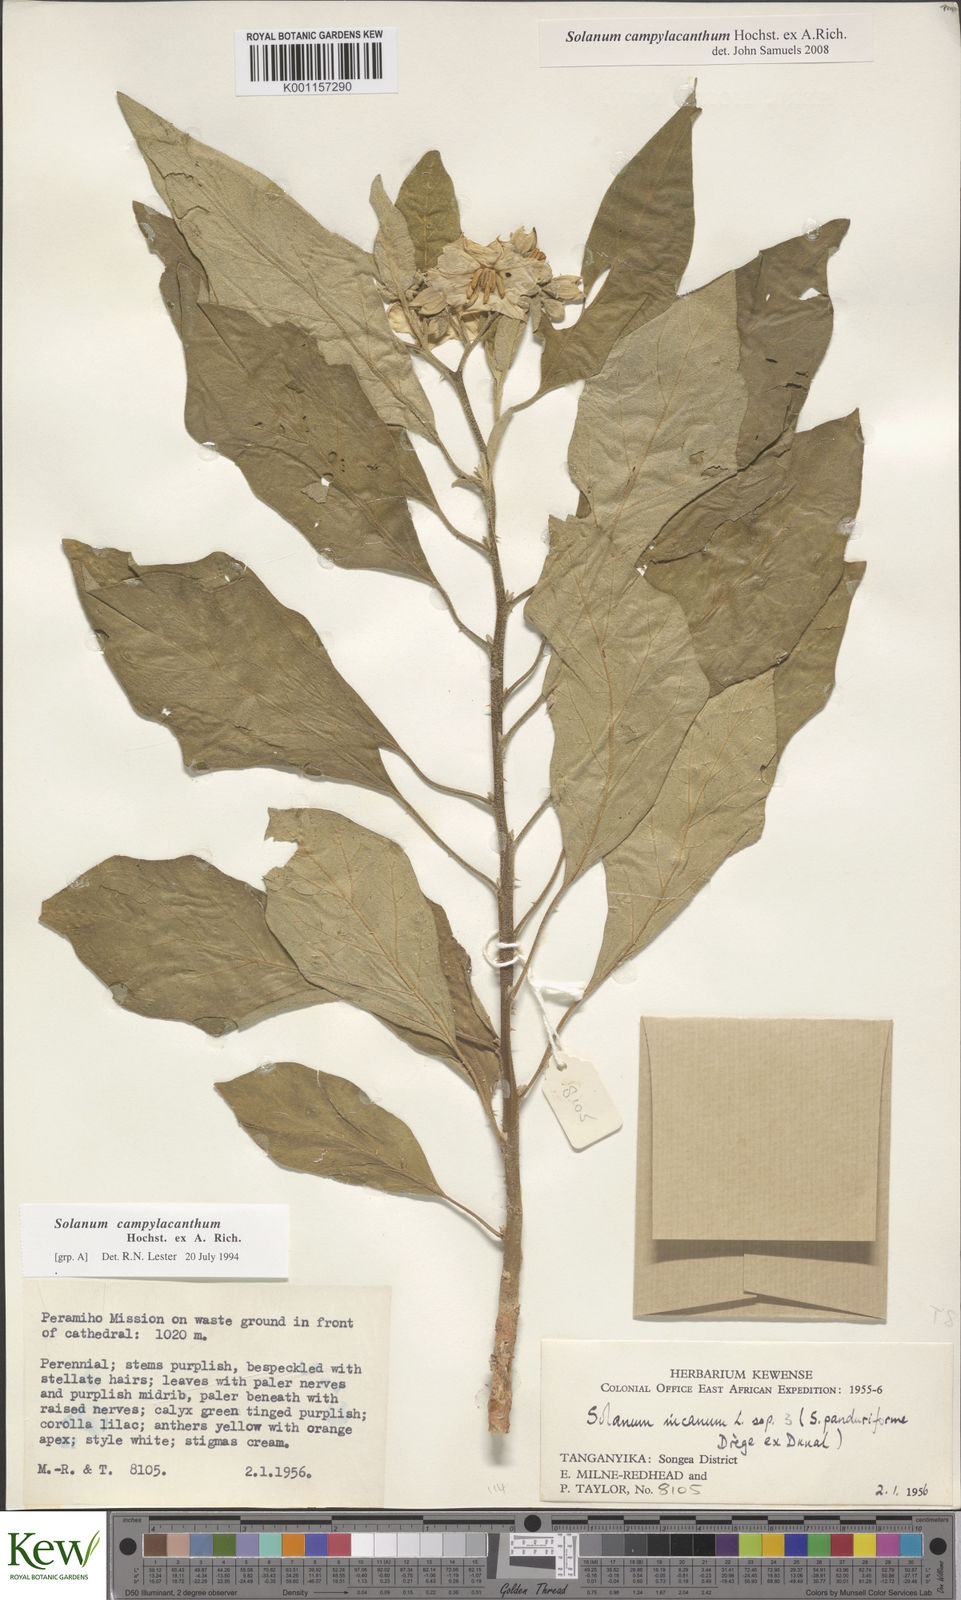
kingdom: Plantae
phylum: Tracheophyta
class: Magnoliopsida
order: Solanales
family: Solanaceae
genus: Solanum
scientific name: Solanum campylacanthum
